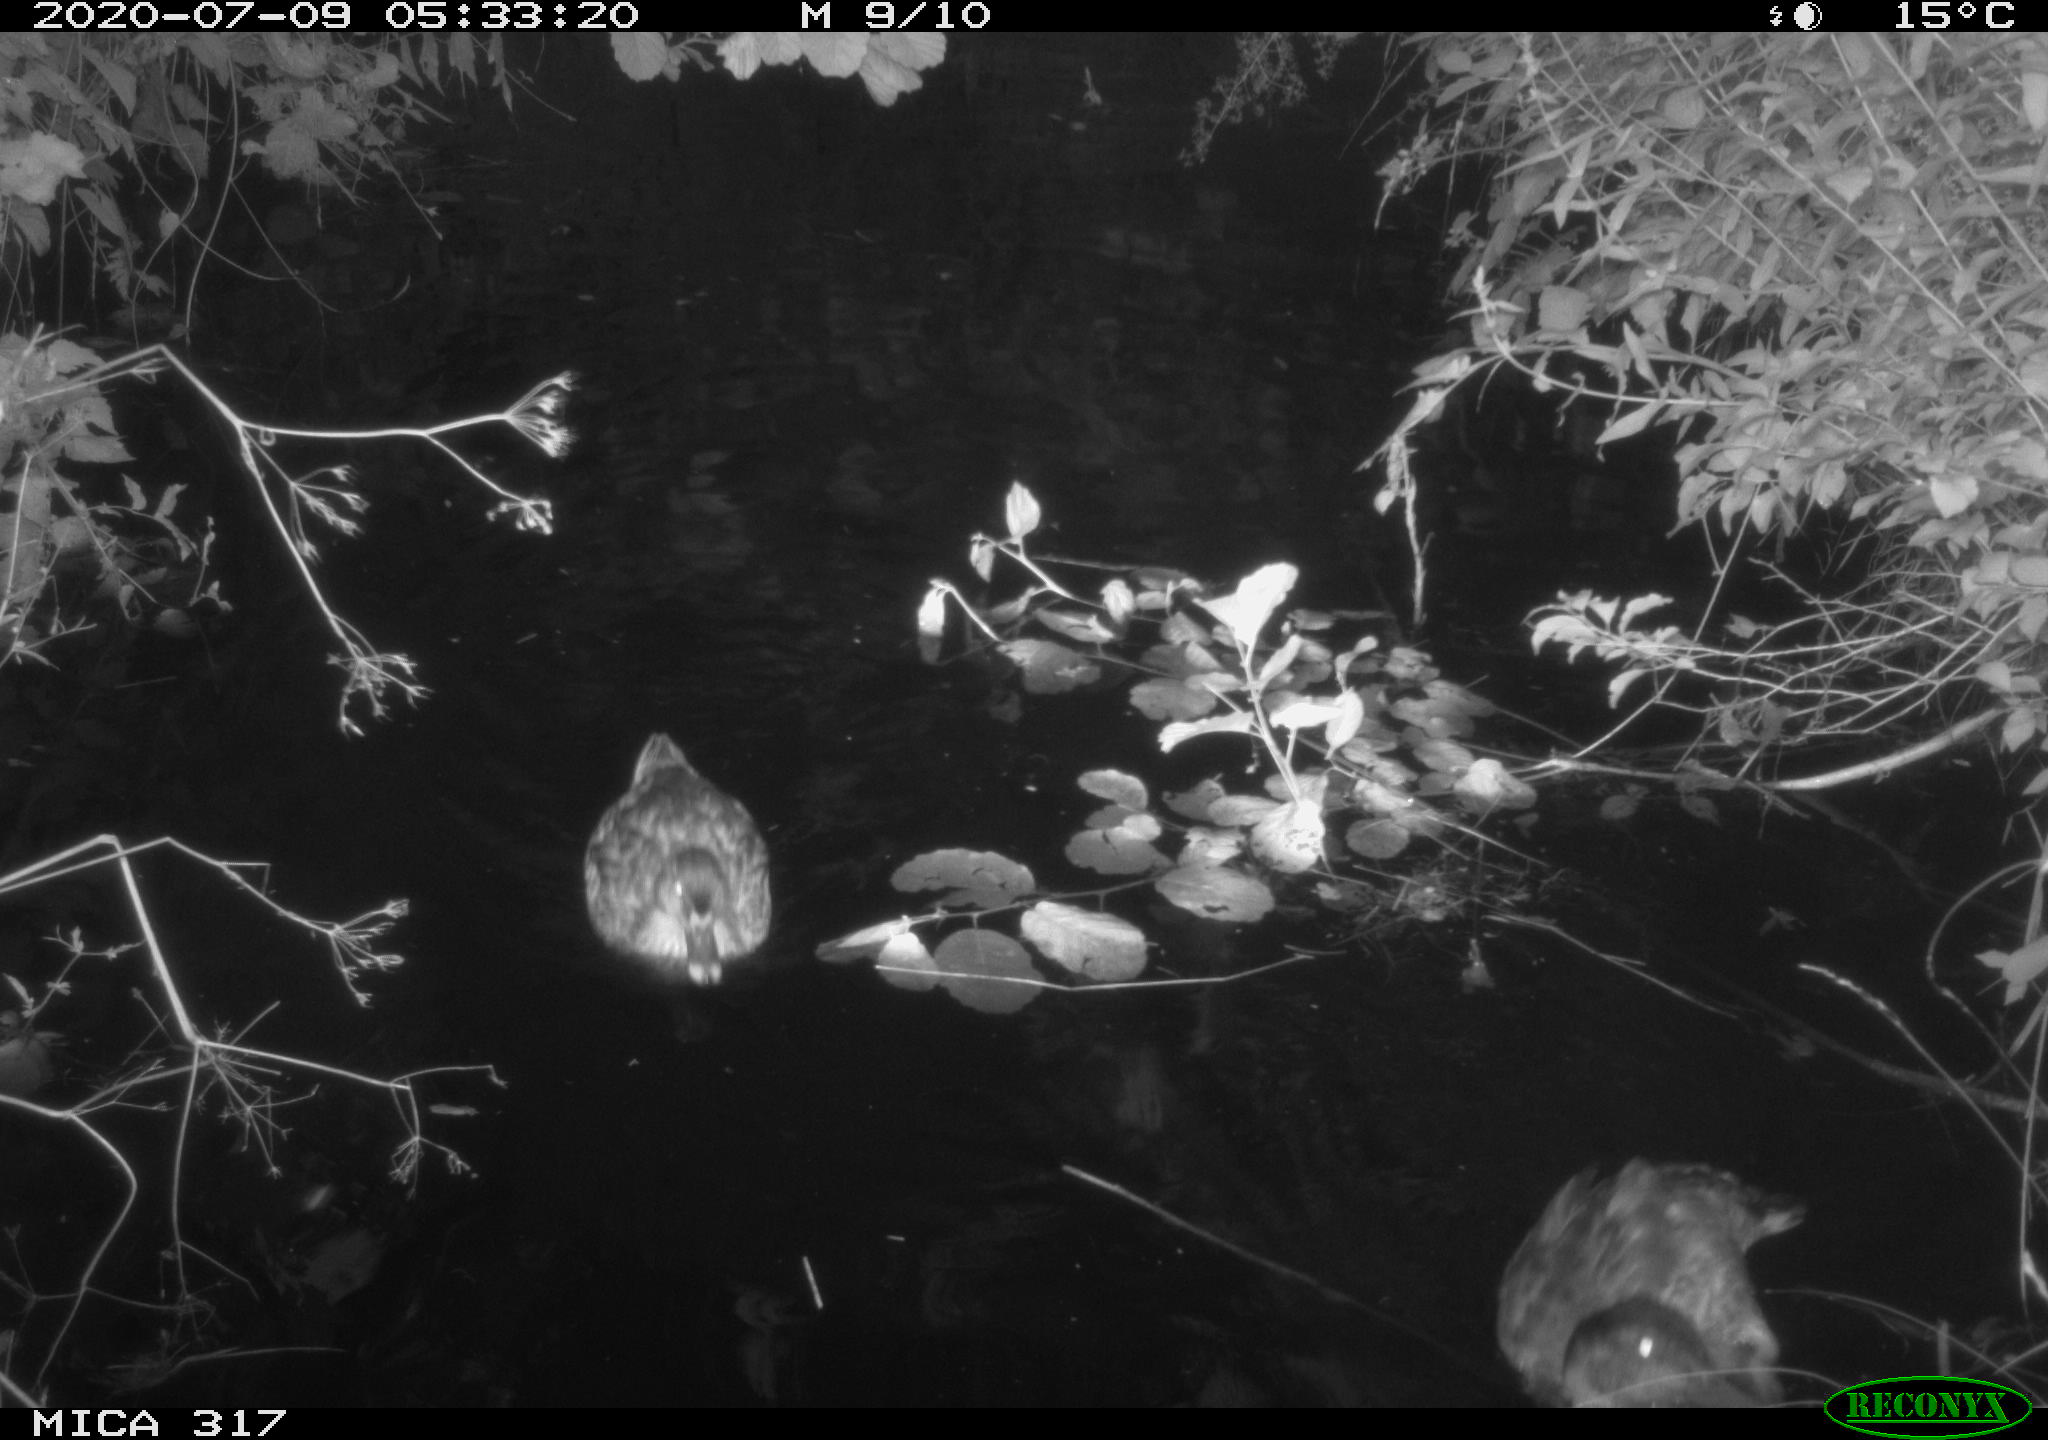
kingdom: Animalia
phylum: Chordata
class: Aves
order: Anseriformes
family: Anatidae
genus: Anas
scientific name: Anas platyrhynchos
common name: Mallard
